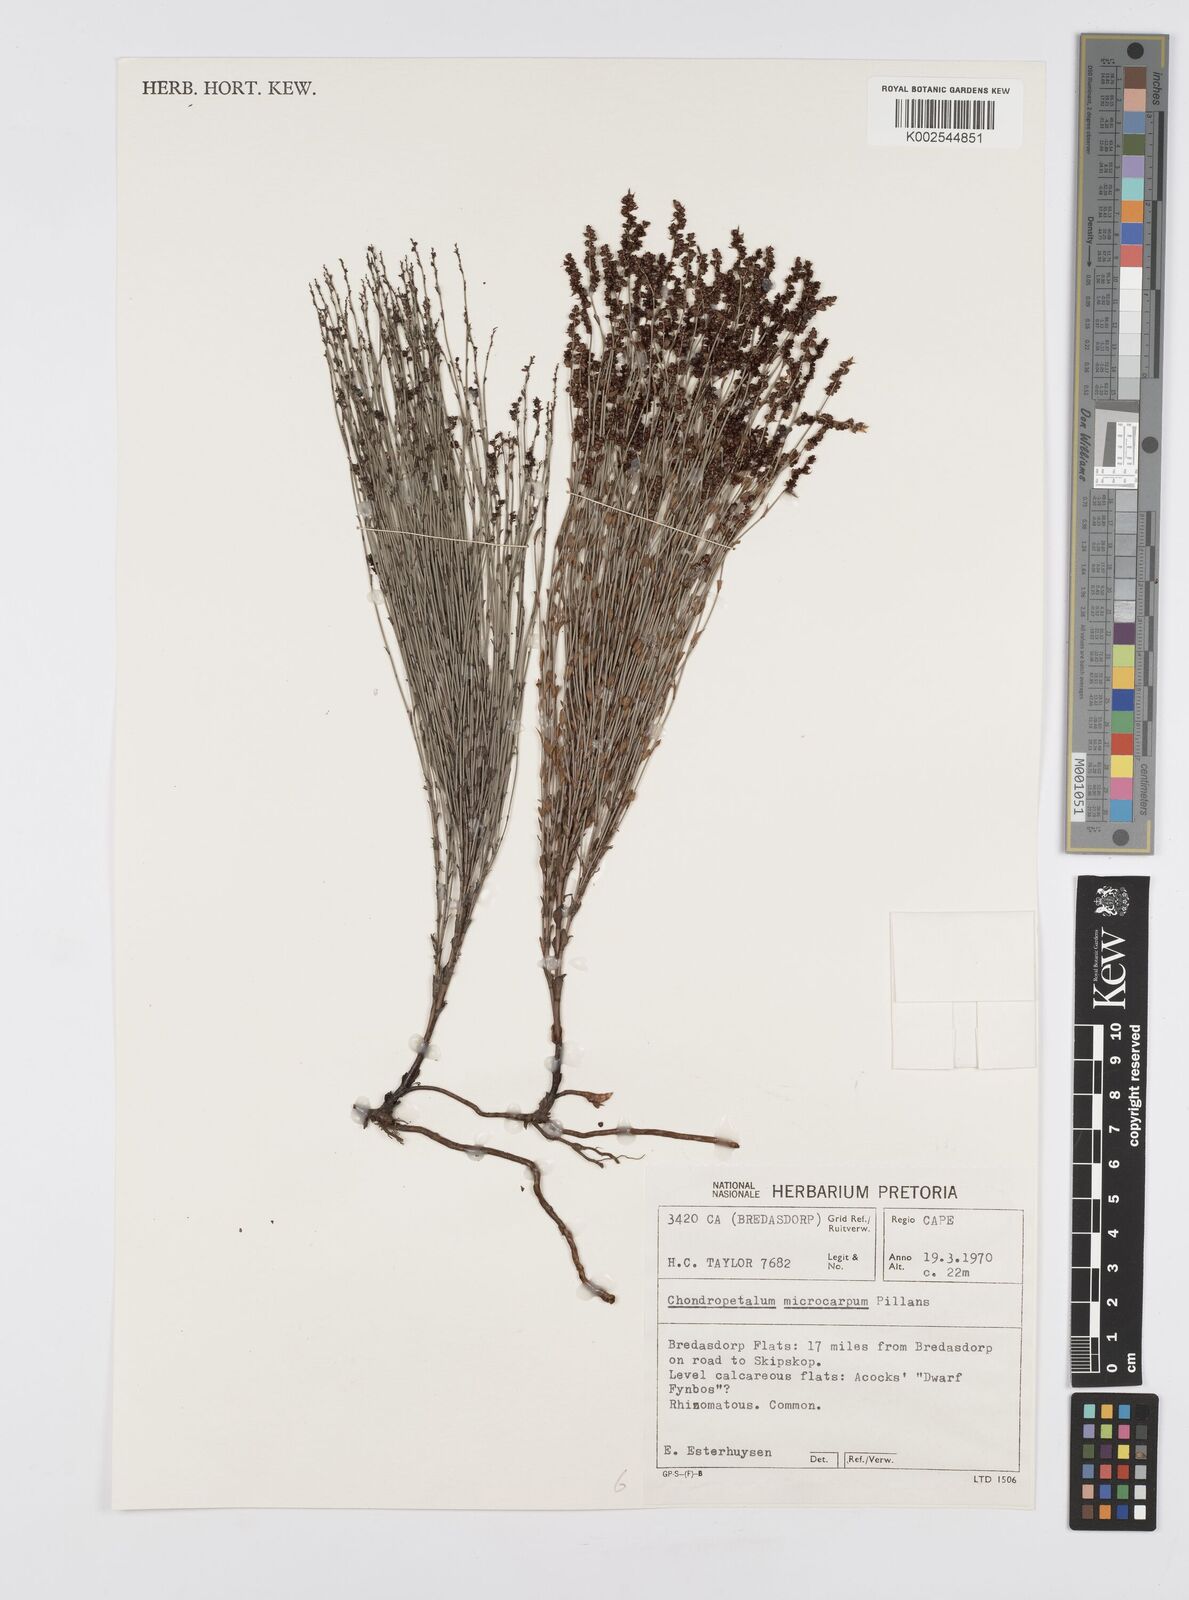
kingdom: Plantae
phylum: Tracheophyta
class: Liliopsida
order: Poales
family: Restionaceae
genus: Elegia
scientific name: Elegia microcarpa
